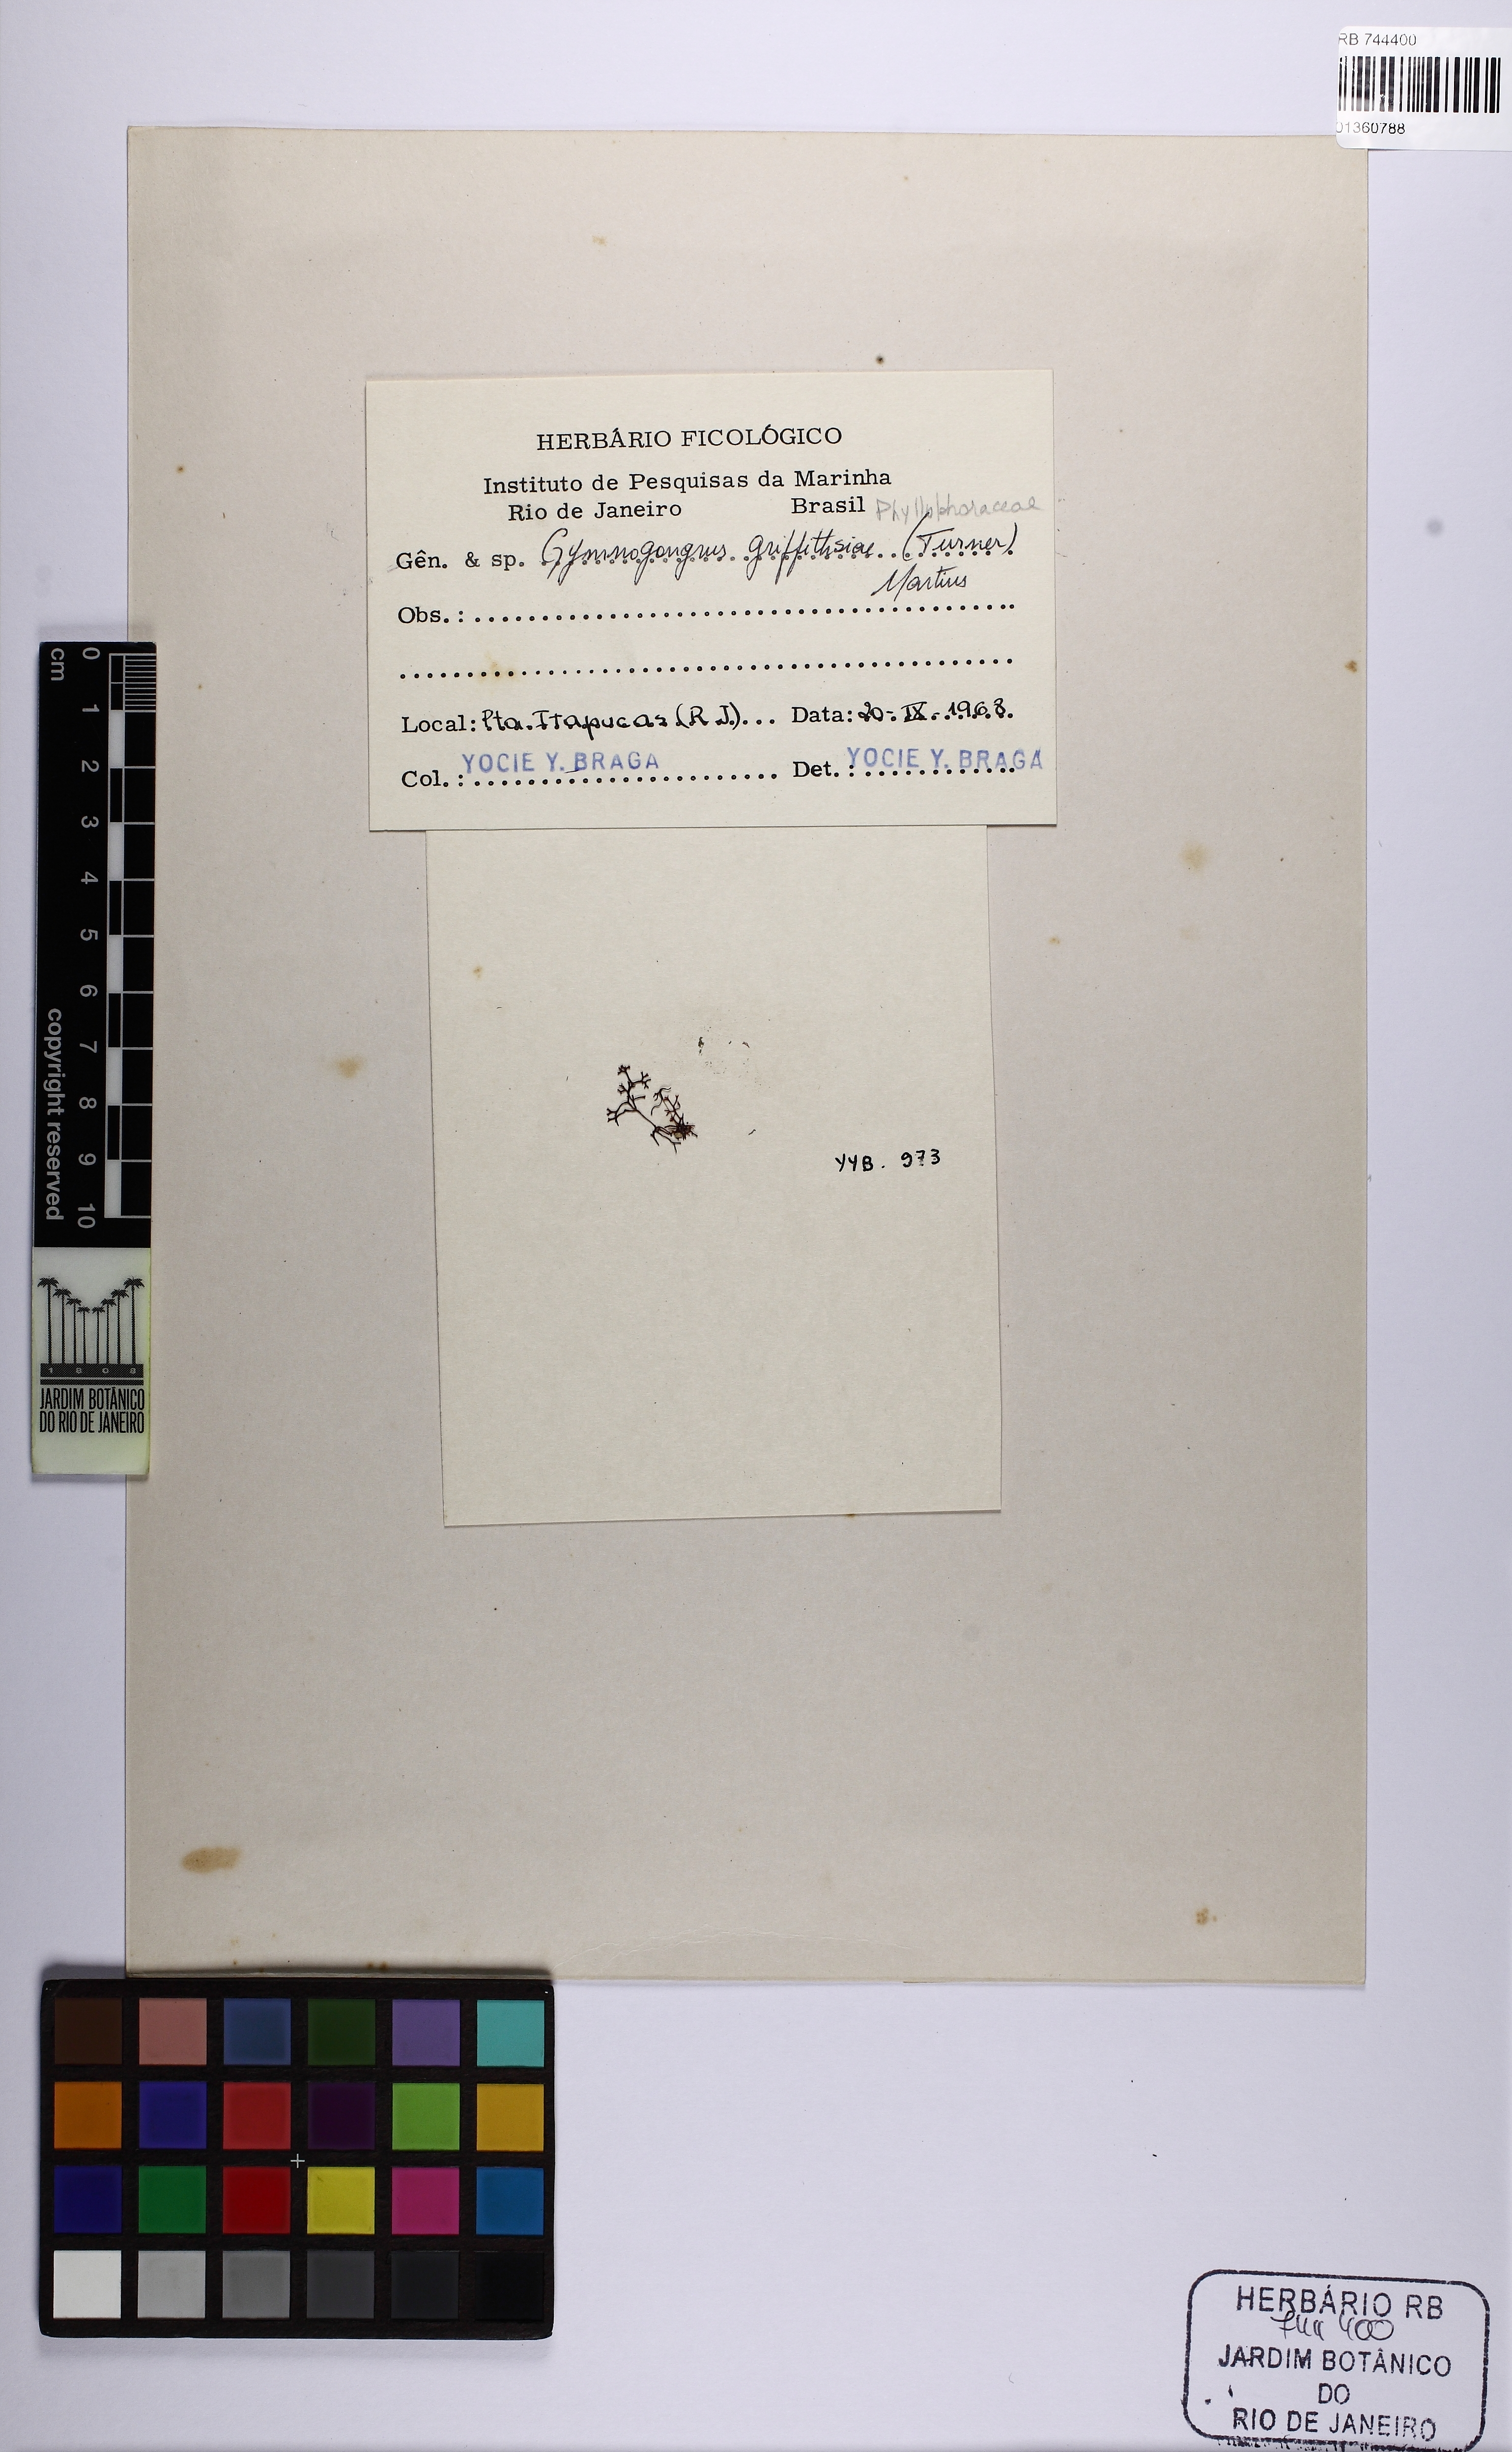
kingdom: Plantae
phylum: Rhodophyta
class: Florideophyceae
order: Gigartinales
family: Phyllophoraceae
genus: Gymnogongrus
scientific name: Gymnogongrus griffithsiae
